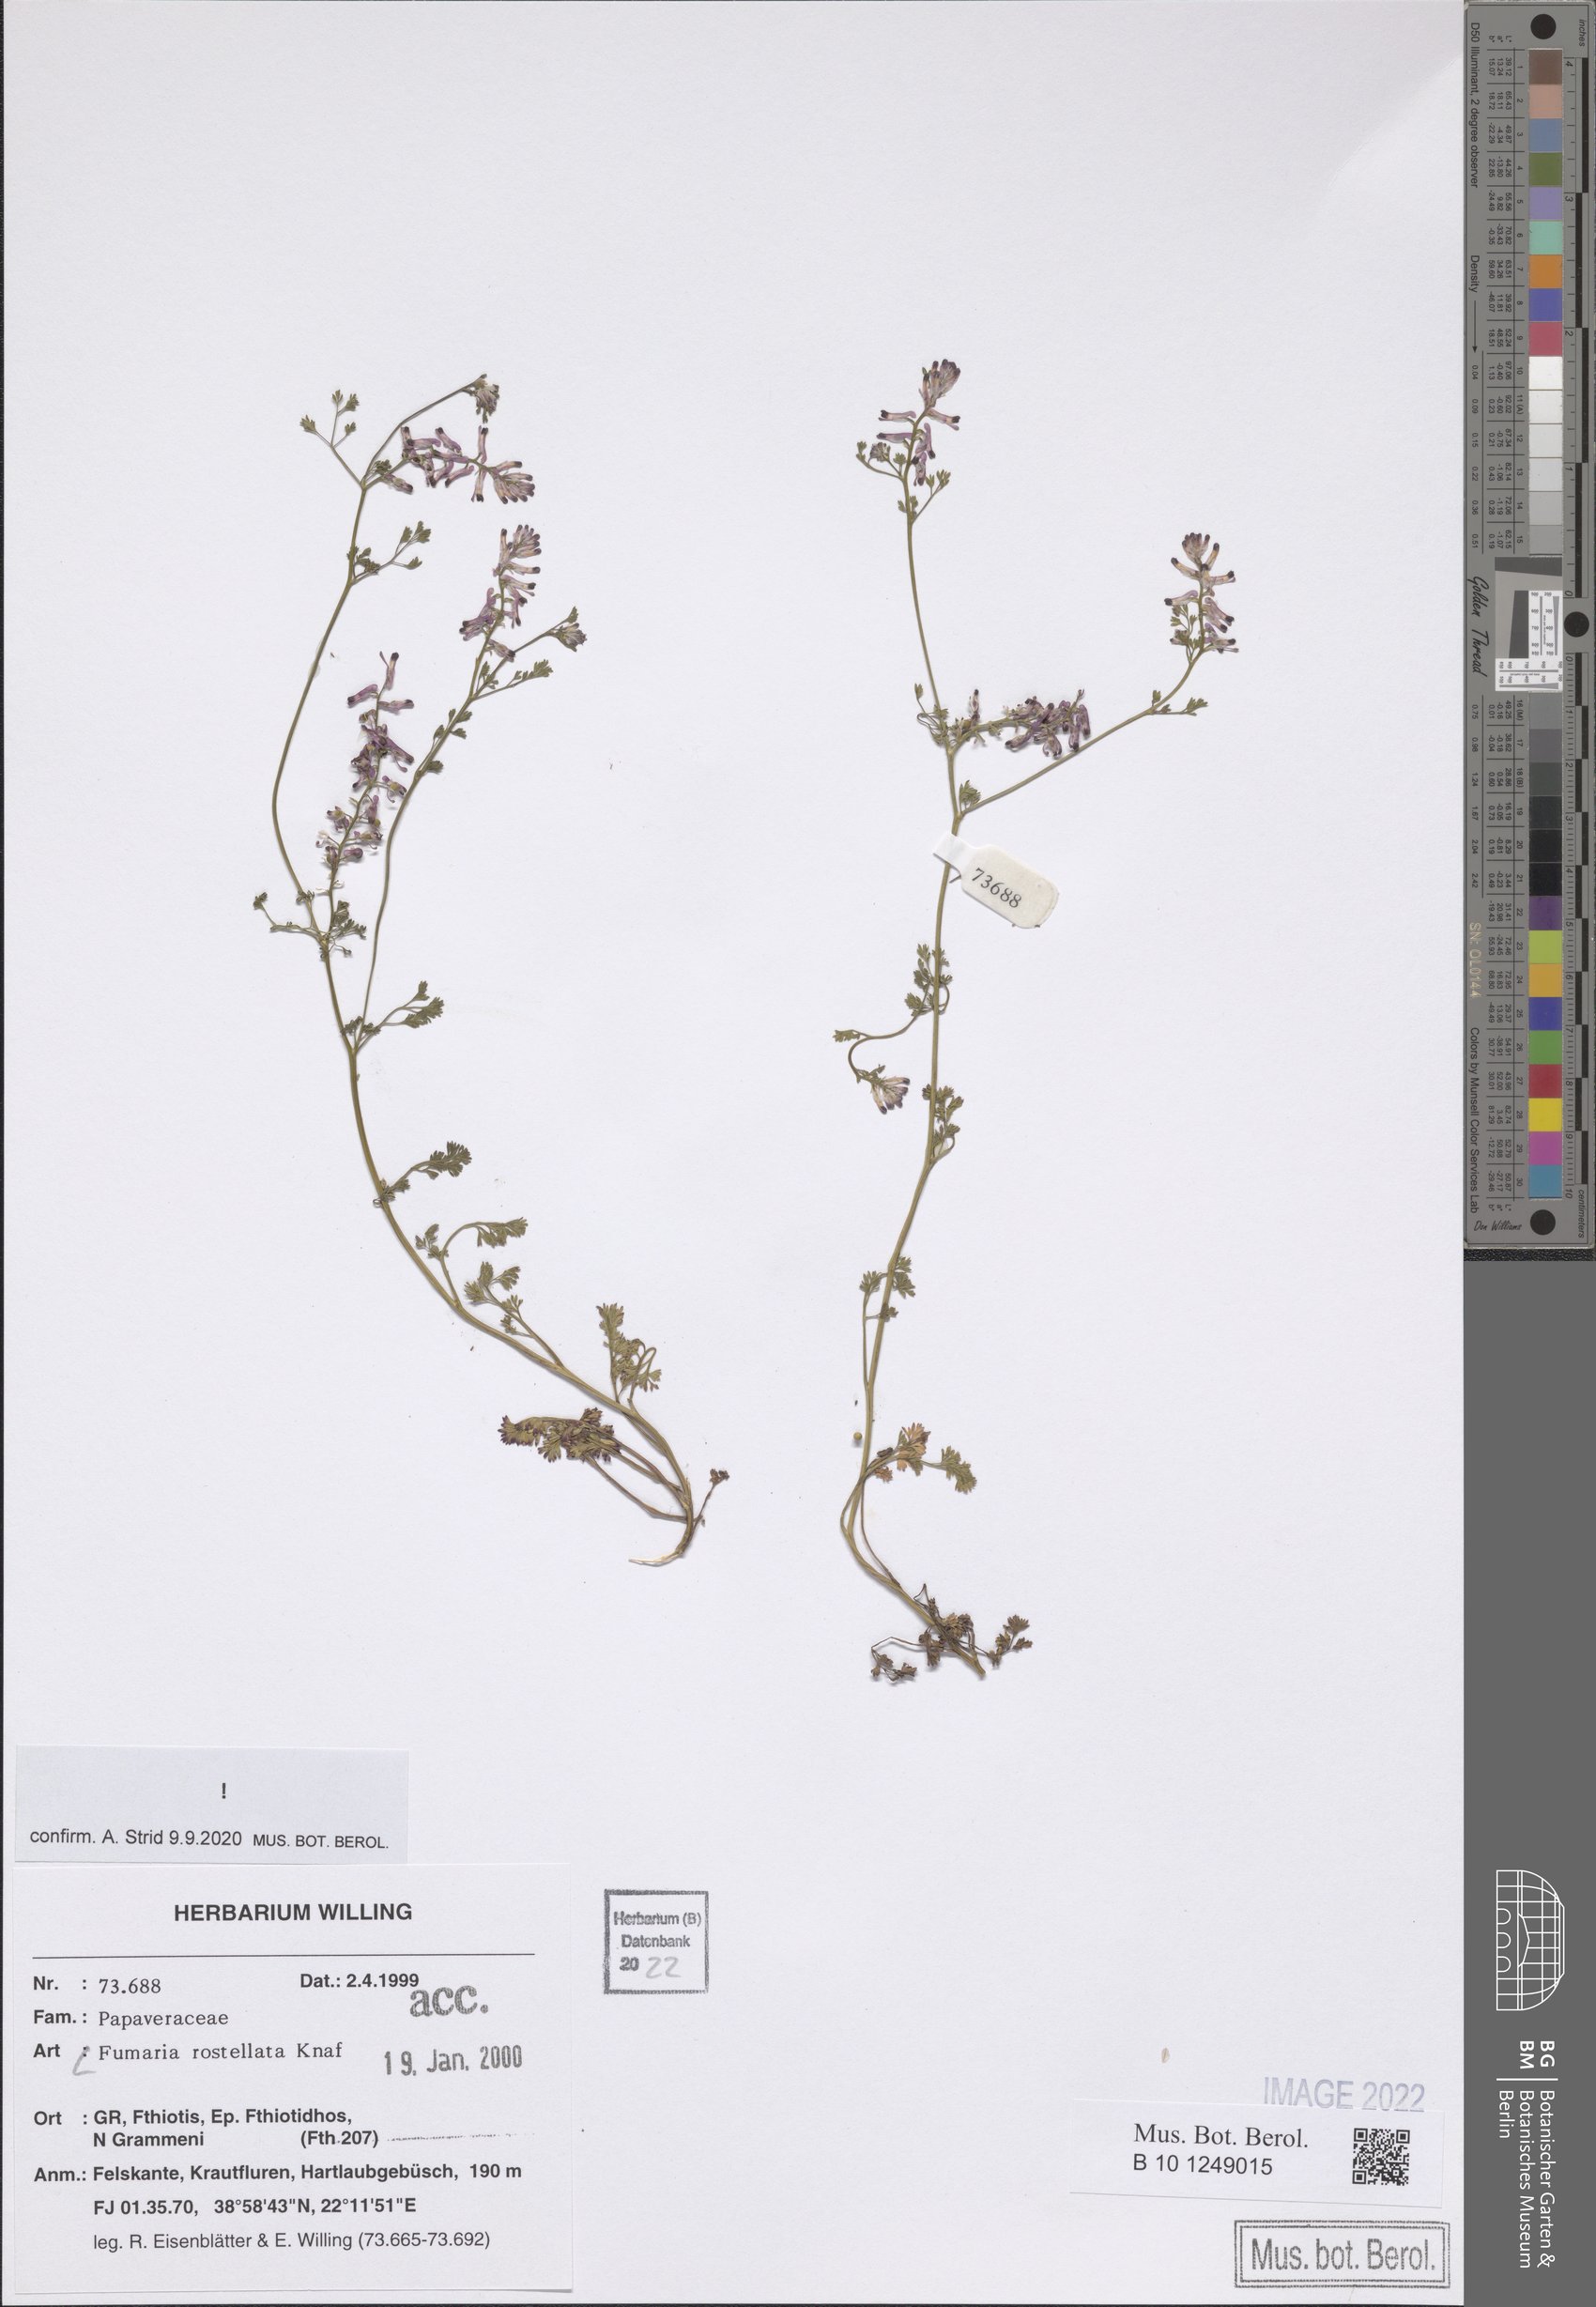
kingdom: Plantae
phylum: Tracheophyta
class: Magnoliopsida
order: Ranunculales
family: Papaveraceae
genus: Fumaria
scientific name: Fumaria rostellata
